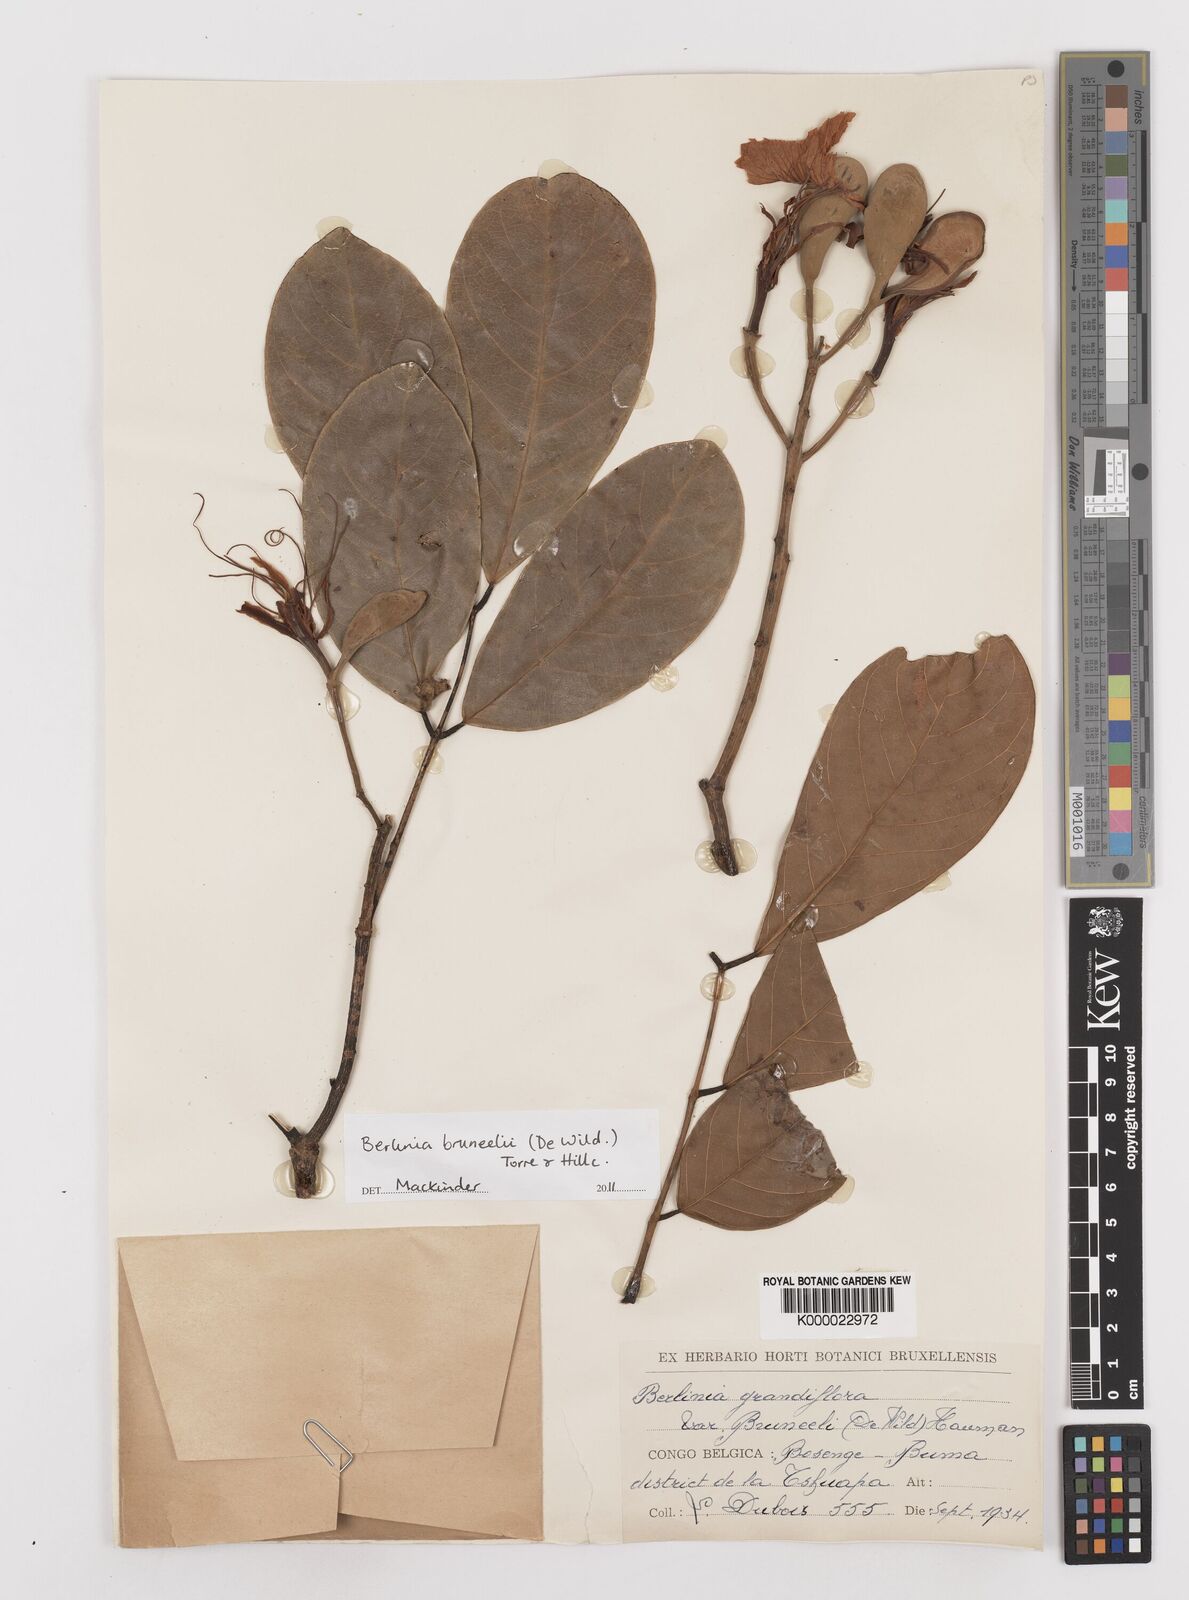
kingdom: Plantae
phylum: Tracheophyta
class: Magnoliopsida
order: Fabales
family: Fabaceae
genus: Berlinia
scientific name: Berlinia bruneelii
